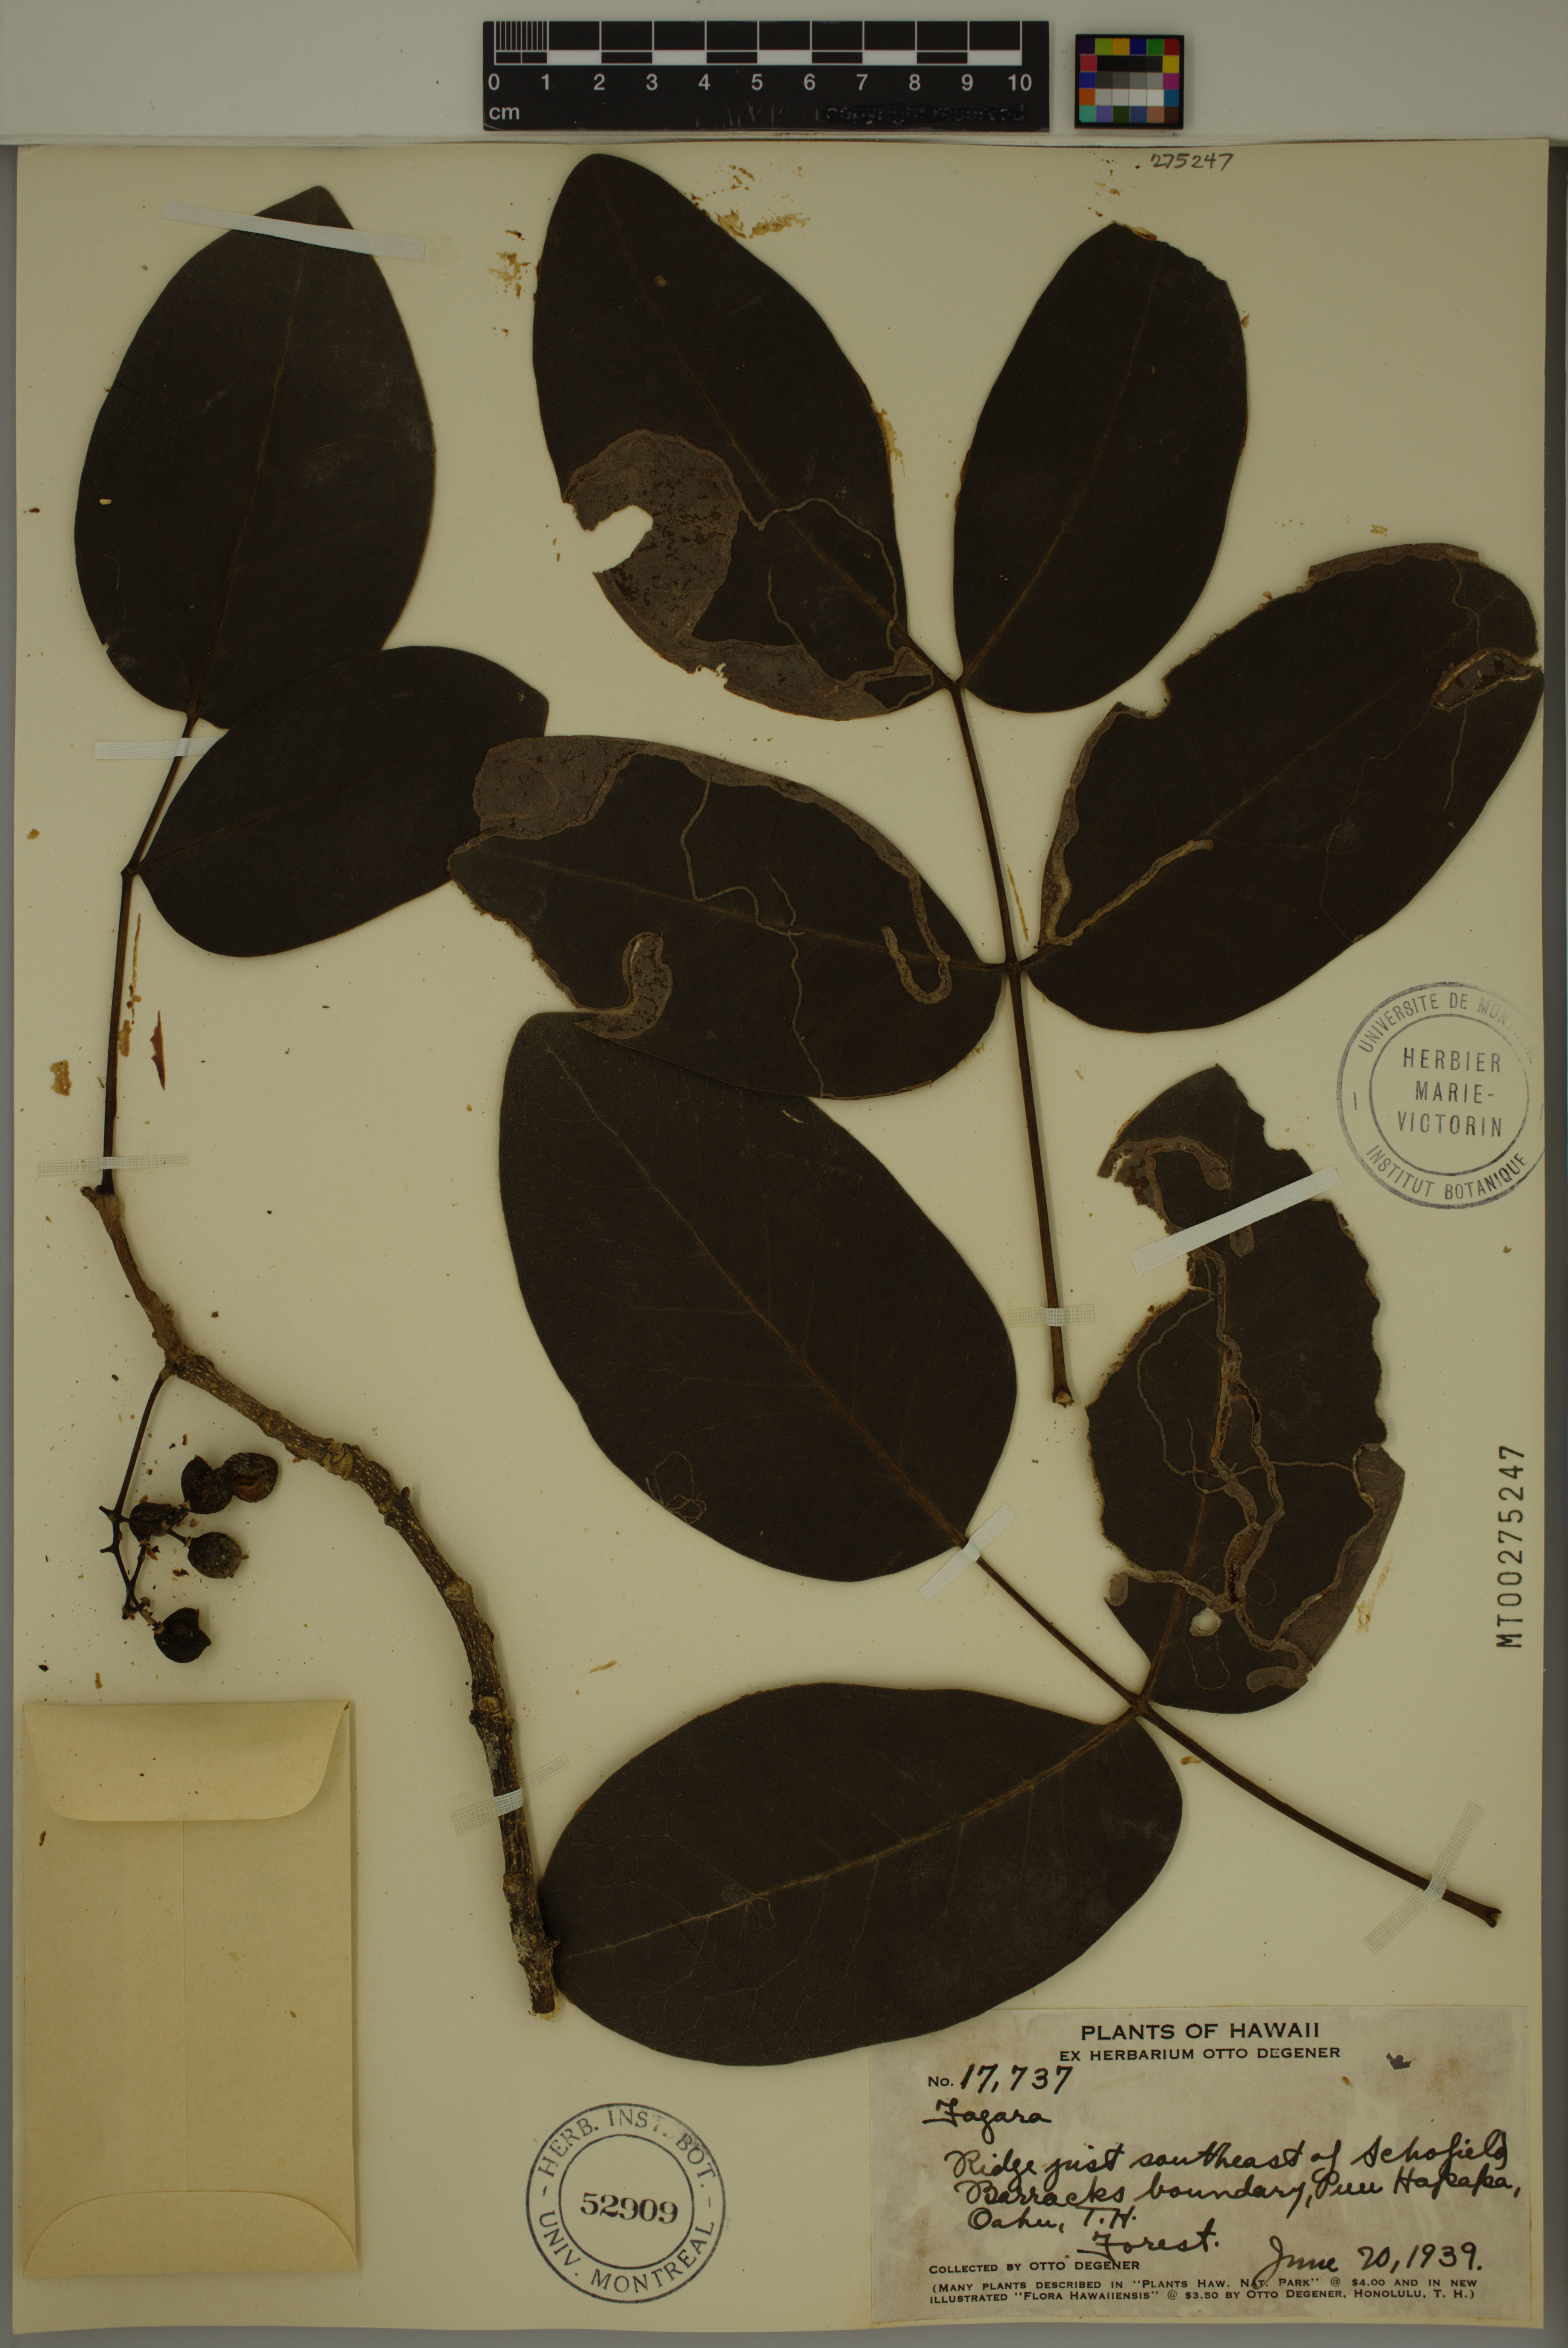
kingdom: Plantae
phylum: Tracheophyta
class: Magnoliopsida
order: Sapindales
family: Rutaceae
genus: Zanthoxylum
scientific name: Zanthoxylum kauaense
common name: Kauai prickly-ash
